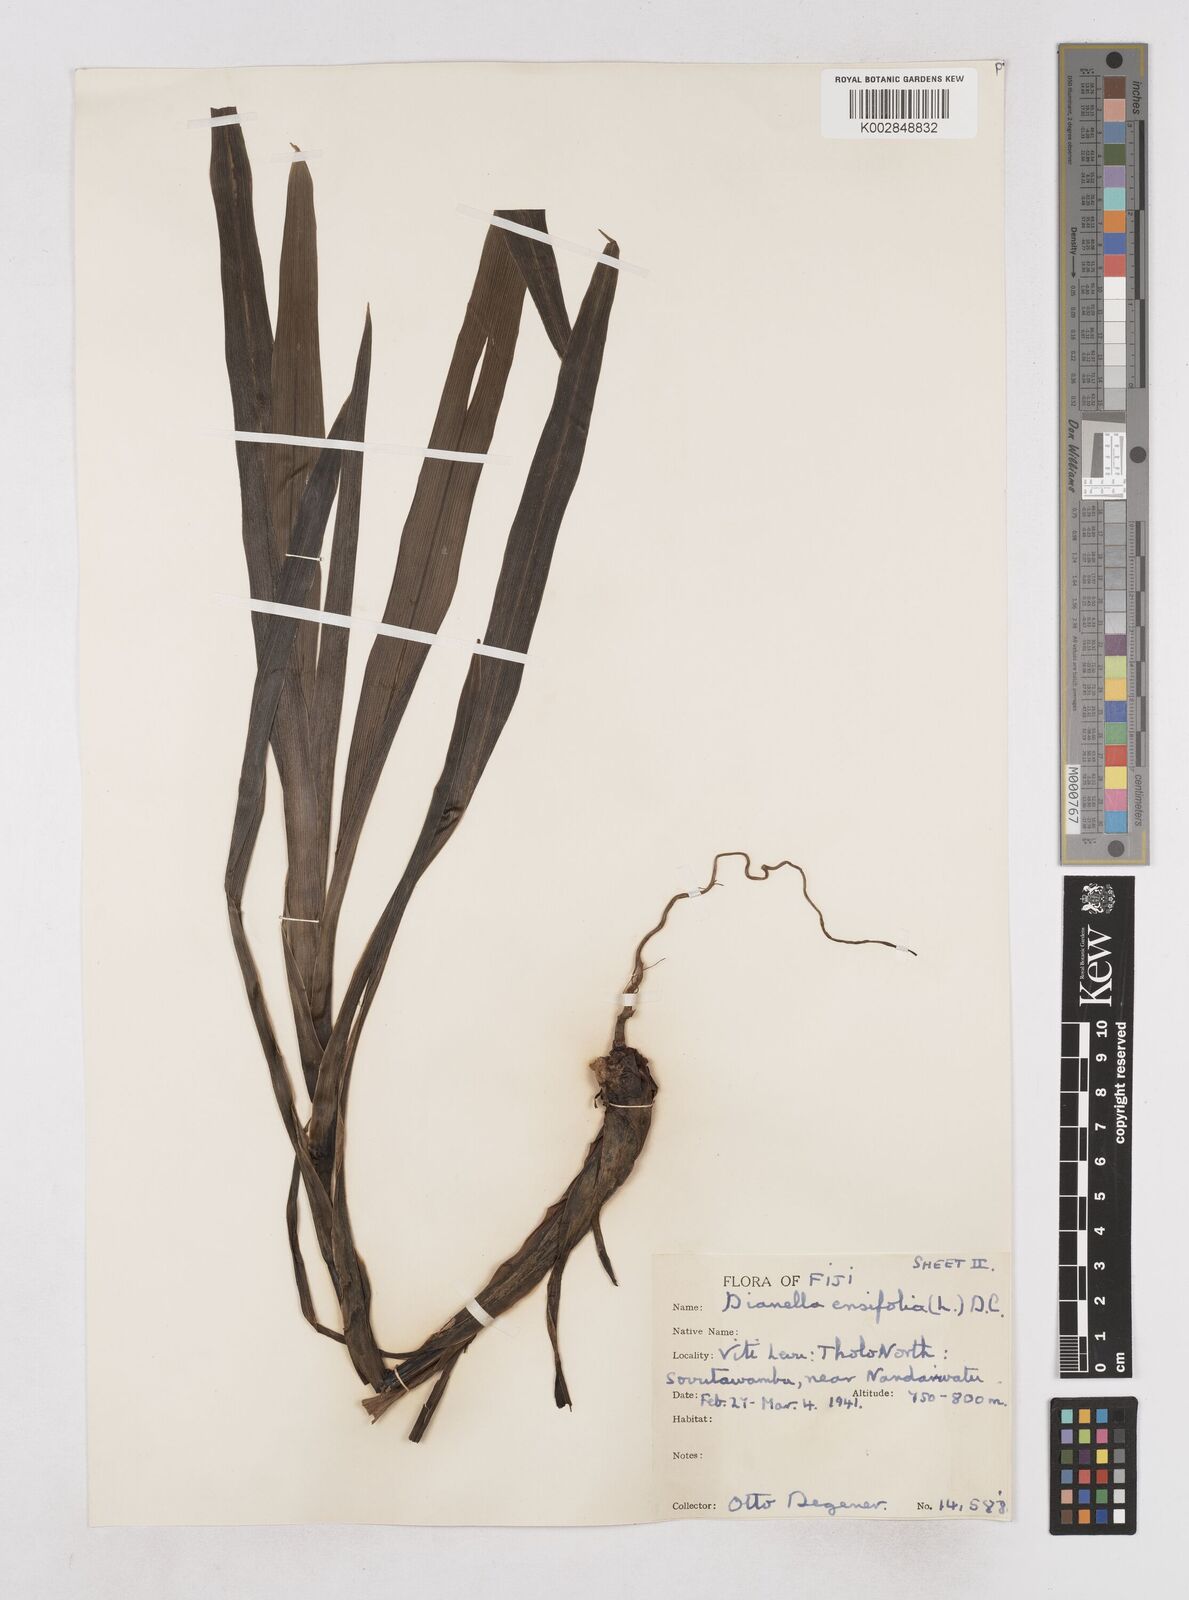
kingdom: Plantae
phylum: Tracheophyta
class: Liliopsida
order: Asparagales
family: Asphodelaceae
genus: Dianella
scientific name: Dianella ensifolia
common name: New zealand lilyplant
